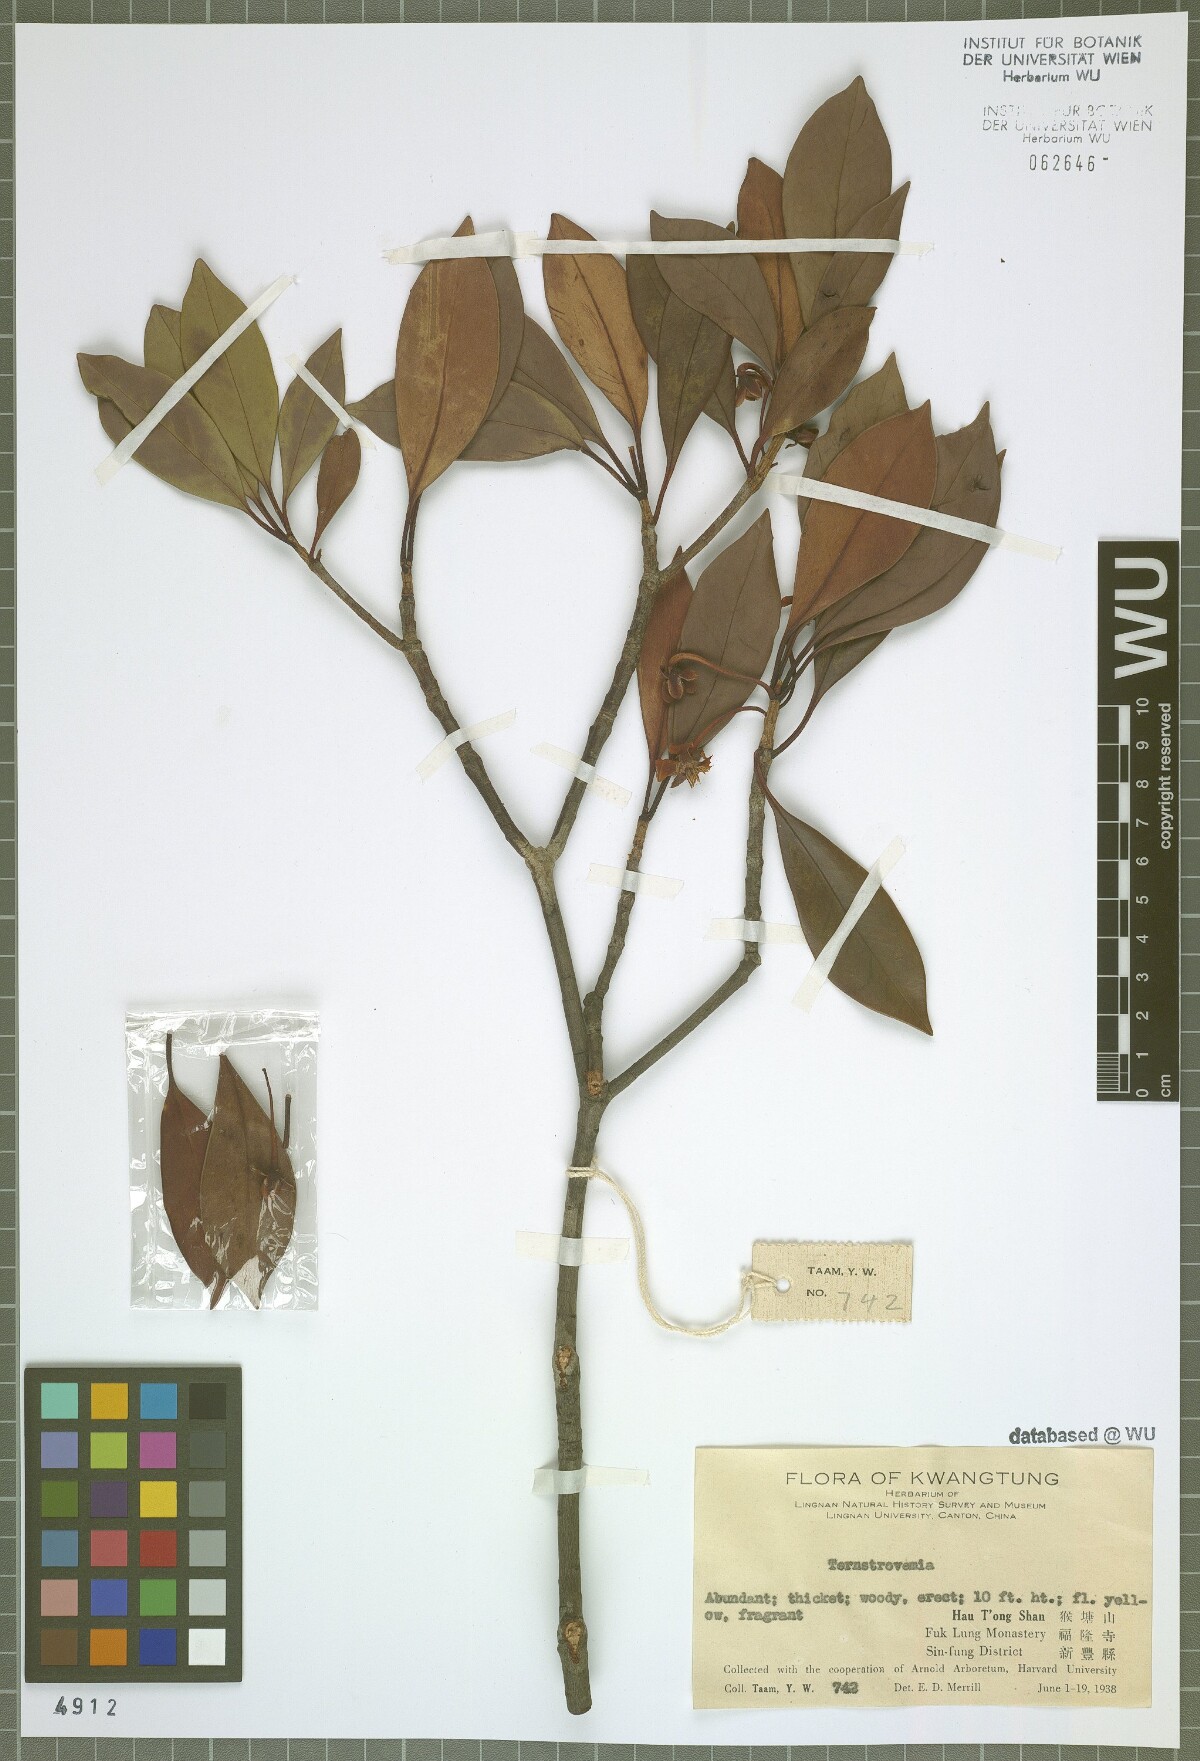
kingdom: Plantae
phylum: Tracheophyta
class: Magnoliopsida
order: Ericales
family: Pentaphylacaceae
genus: Ternstroemia
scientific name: Ternstroemia
